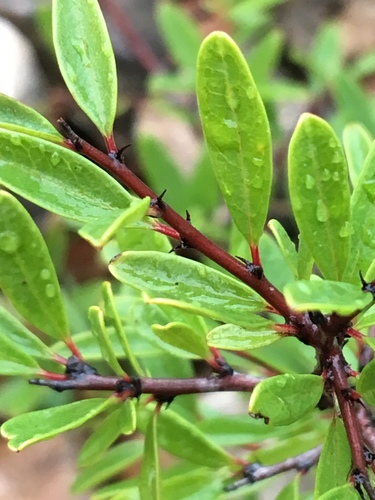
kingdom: Plantae
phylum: Tracheophyta
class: Magnoliopsida
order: Rosales
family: Rhamnaceae
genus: Rhamnus
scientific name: Rhamnus oleoides
